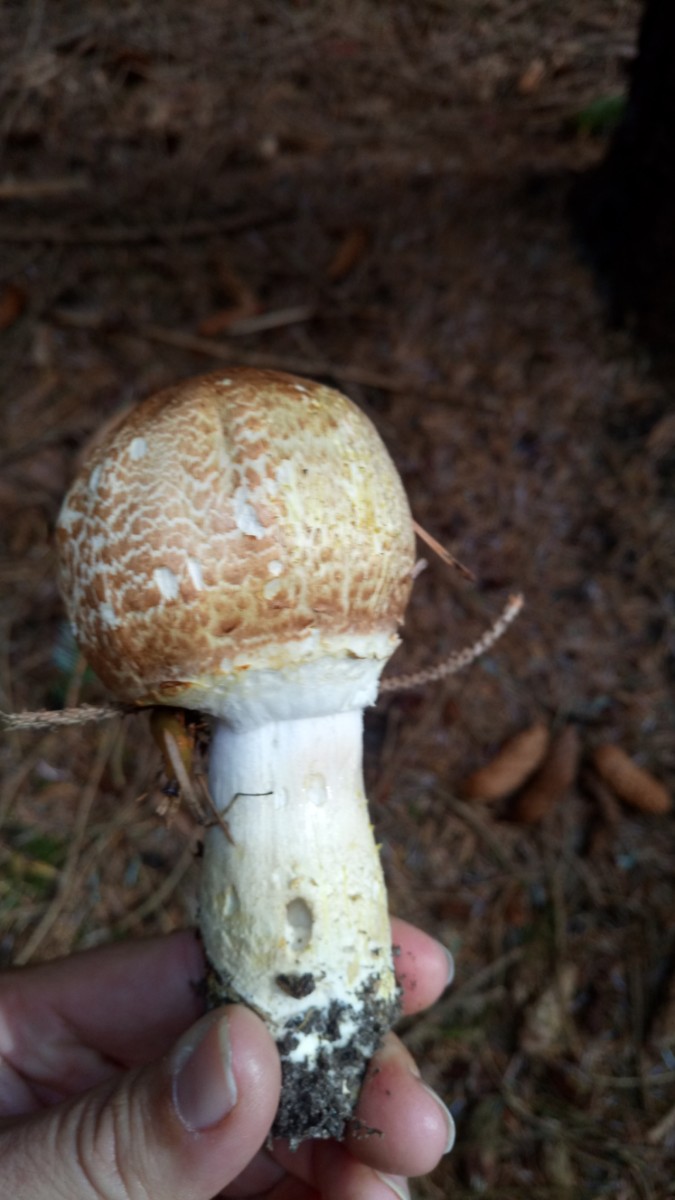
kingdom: Fungi
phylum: Basidiomycota
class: Agaricomycetes
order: Agaricales
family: Agaricaceae
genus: Agaricus
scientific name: Agaricus augustus
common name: prægtig champignon
